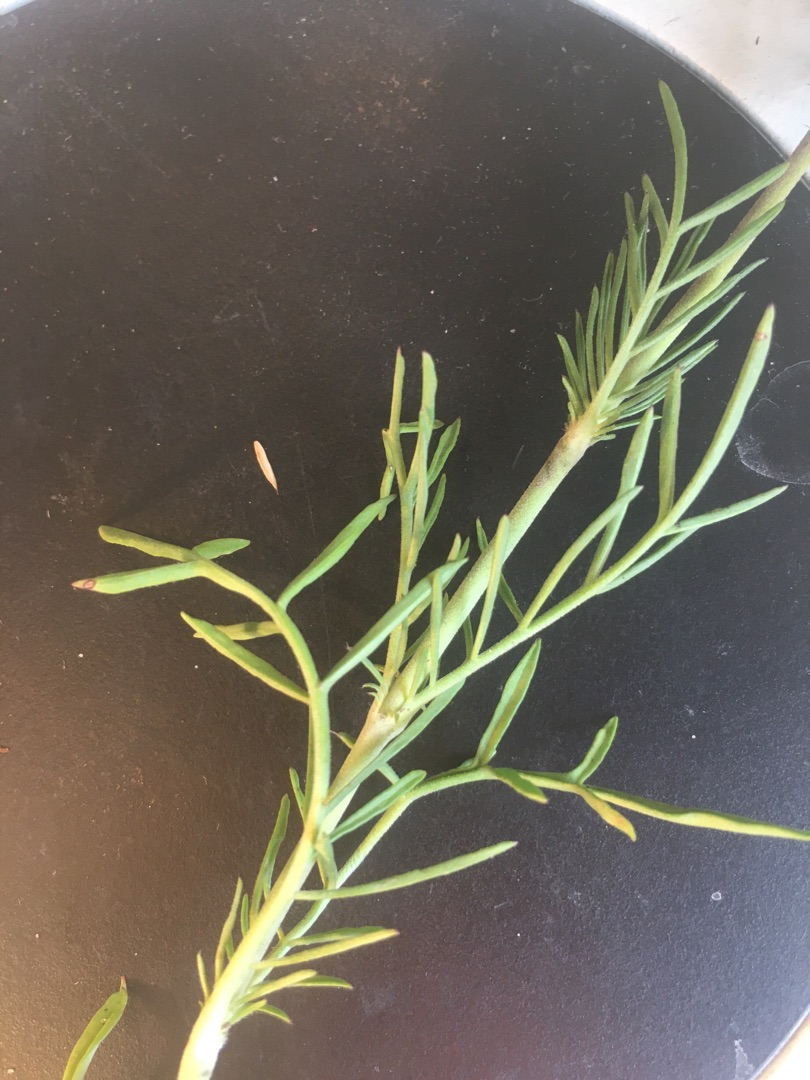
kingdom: Plantae
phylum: Tracheophyta
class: Magnoliopsida
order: Dipsacales
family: Caprifoliaceae
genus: Scabiosa
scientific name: Scabiosa columbaria
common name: Due-skabiose
